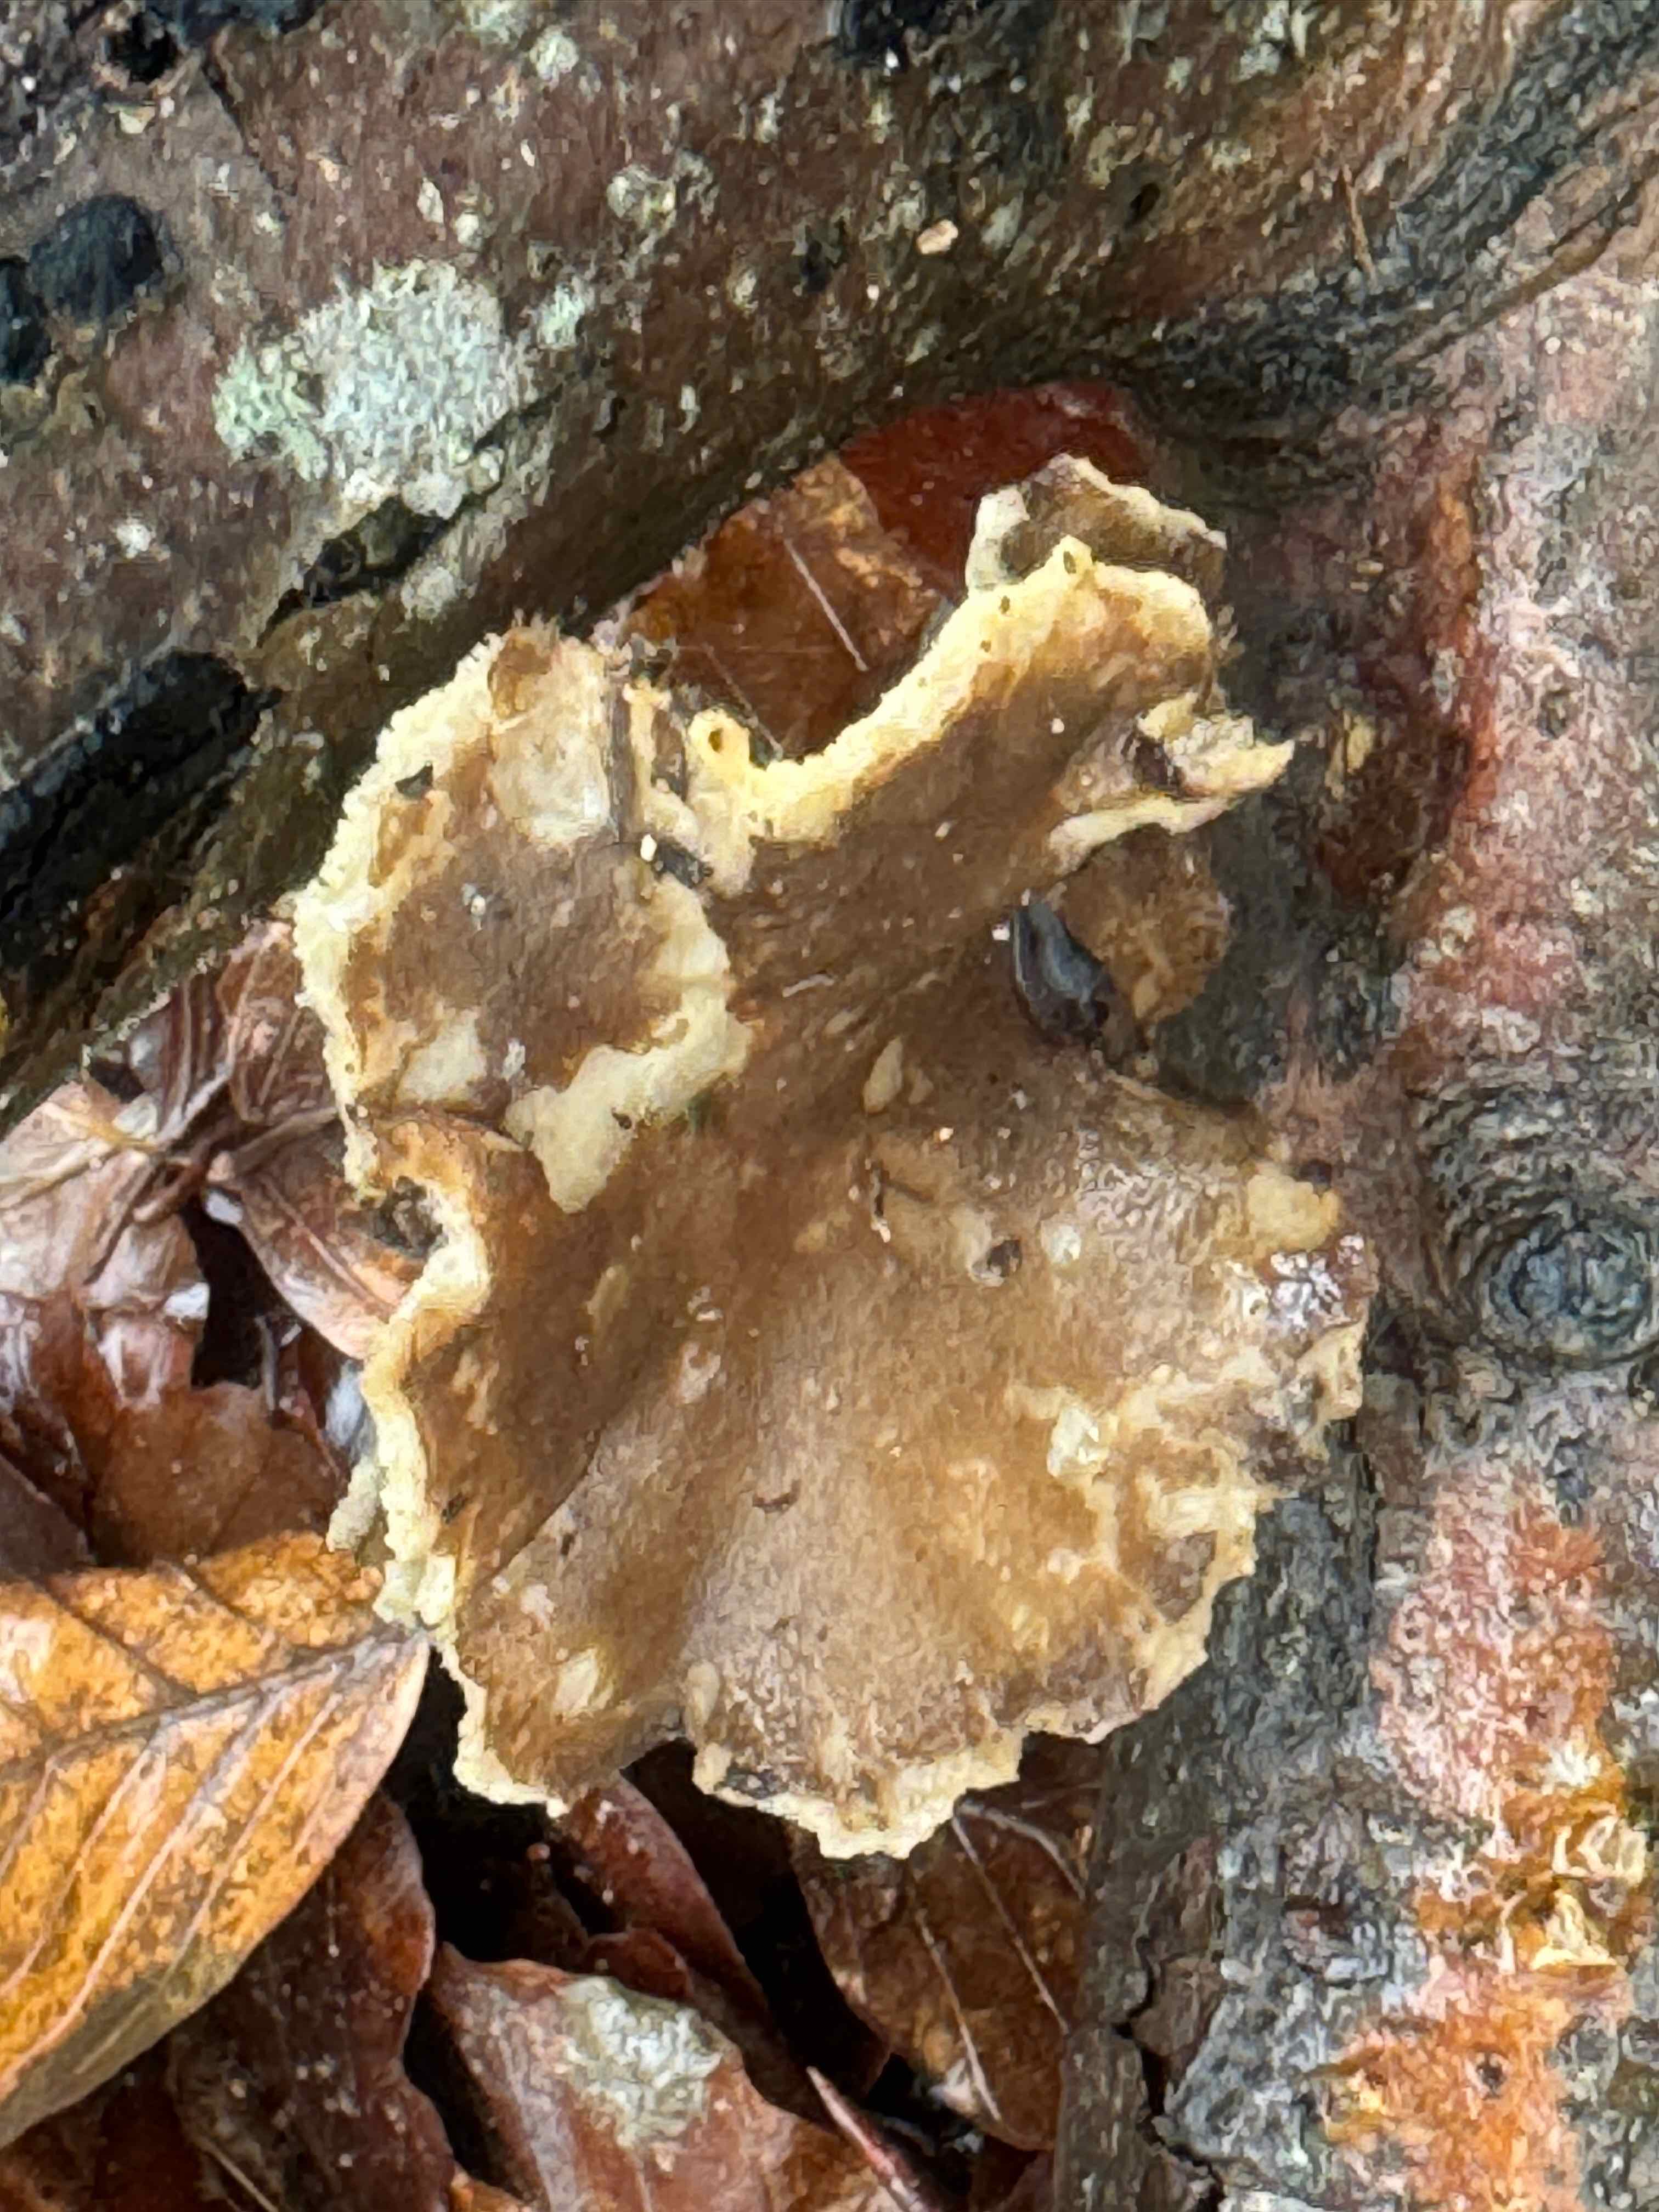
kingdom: Fungi
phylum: Basidiomycota
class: Agaricomycetes
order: Polyporales
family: Polyporaceae
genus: Lentinus
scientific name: Lentinus brumalis
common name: vinter-stilkporesvamp
